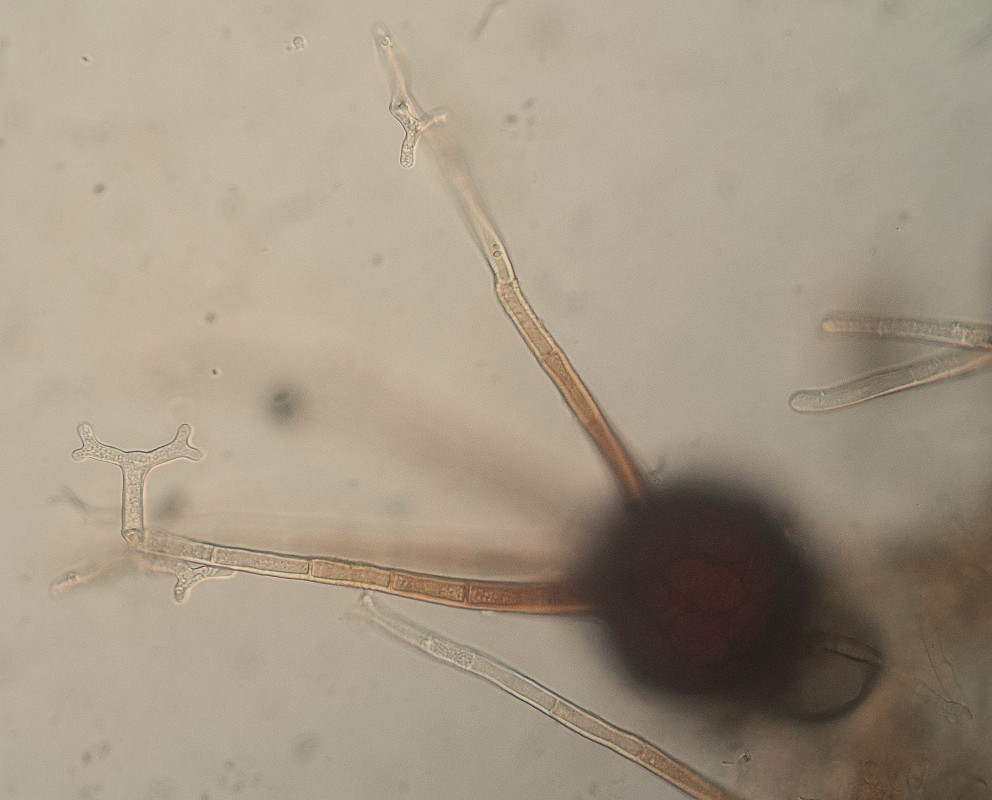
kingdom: Fungi
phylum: Ascomycota
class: Leotiomycetes
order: Helotiales
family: Erysiphaceae
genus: Podosphaera
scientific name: Podosphaera tridactyla
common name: Plum mildew
